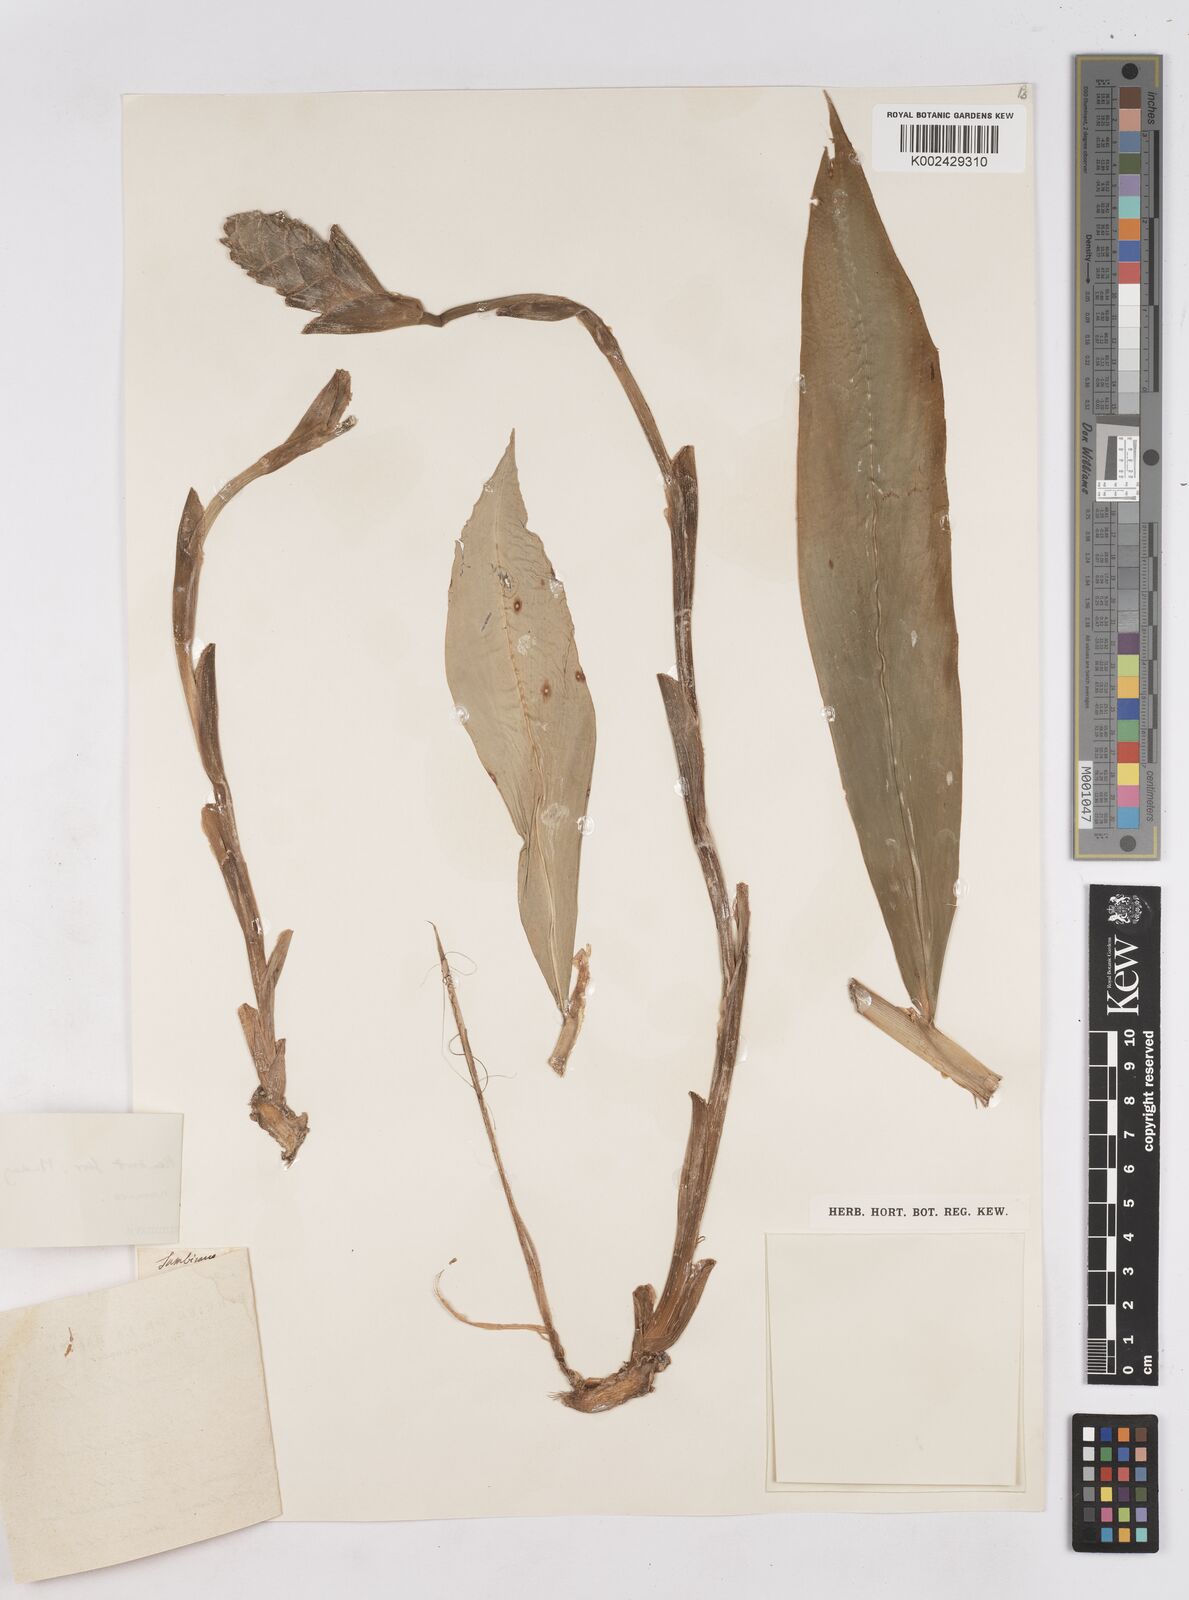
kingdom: Plantae
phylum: Tracheophyta
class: Liliopsida
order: Zingiberales
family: Zingiberaceae
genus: Zingiber
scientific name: Zingiber zerumbet
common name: Bitter ginger
